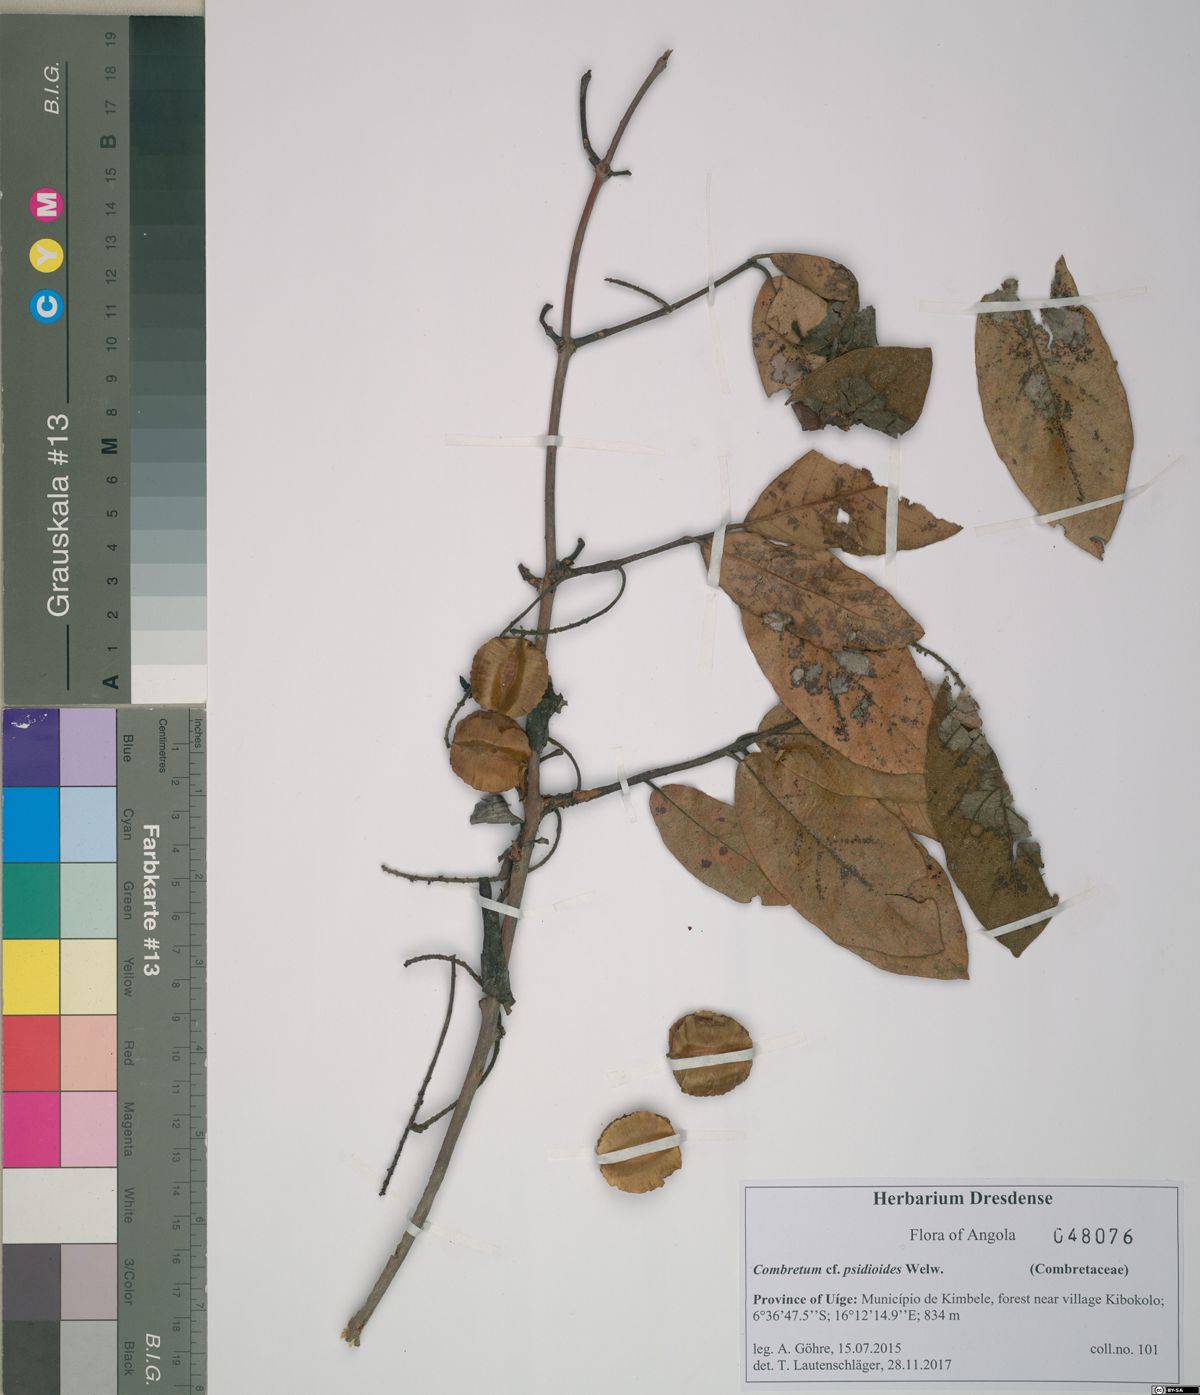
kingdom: Plantae
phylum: Tracheophyta
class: Magnoliopsida
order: Myrtales
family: Combretaceae
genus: Combretum
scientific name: Combretum psidioides
